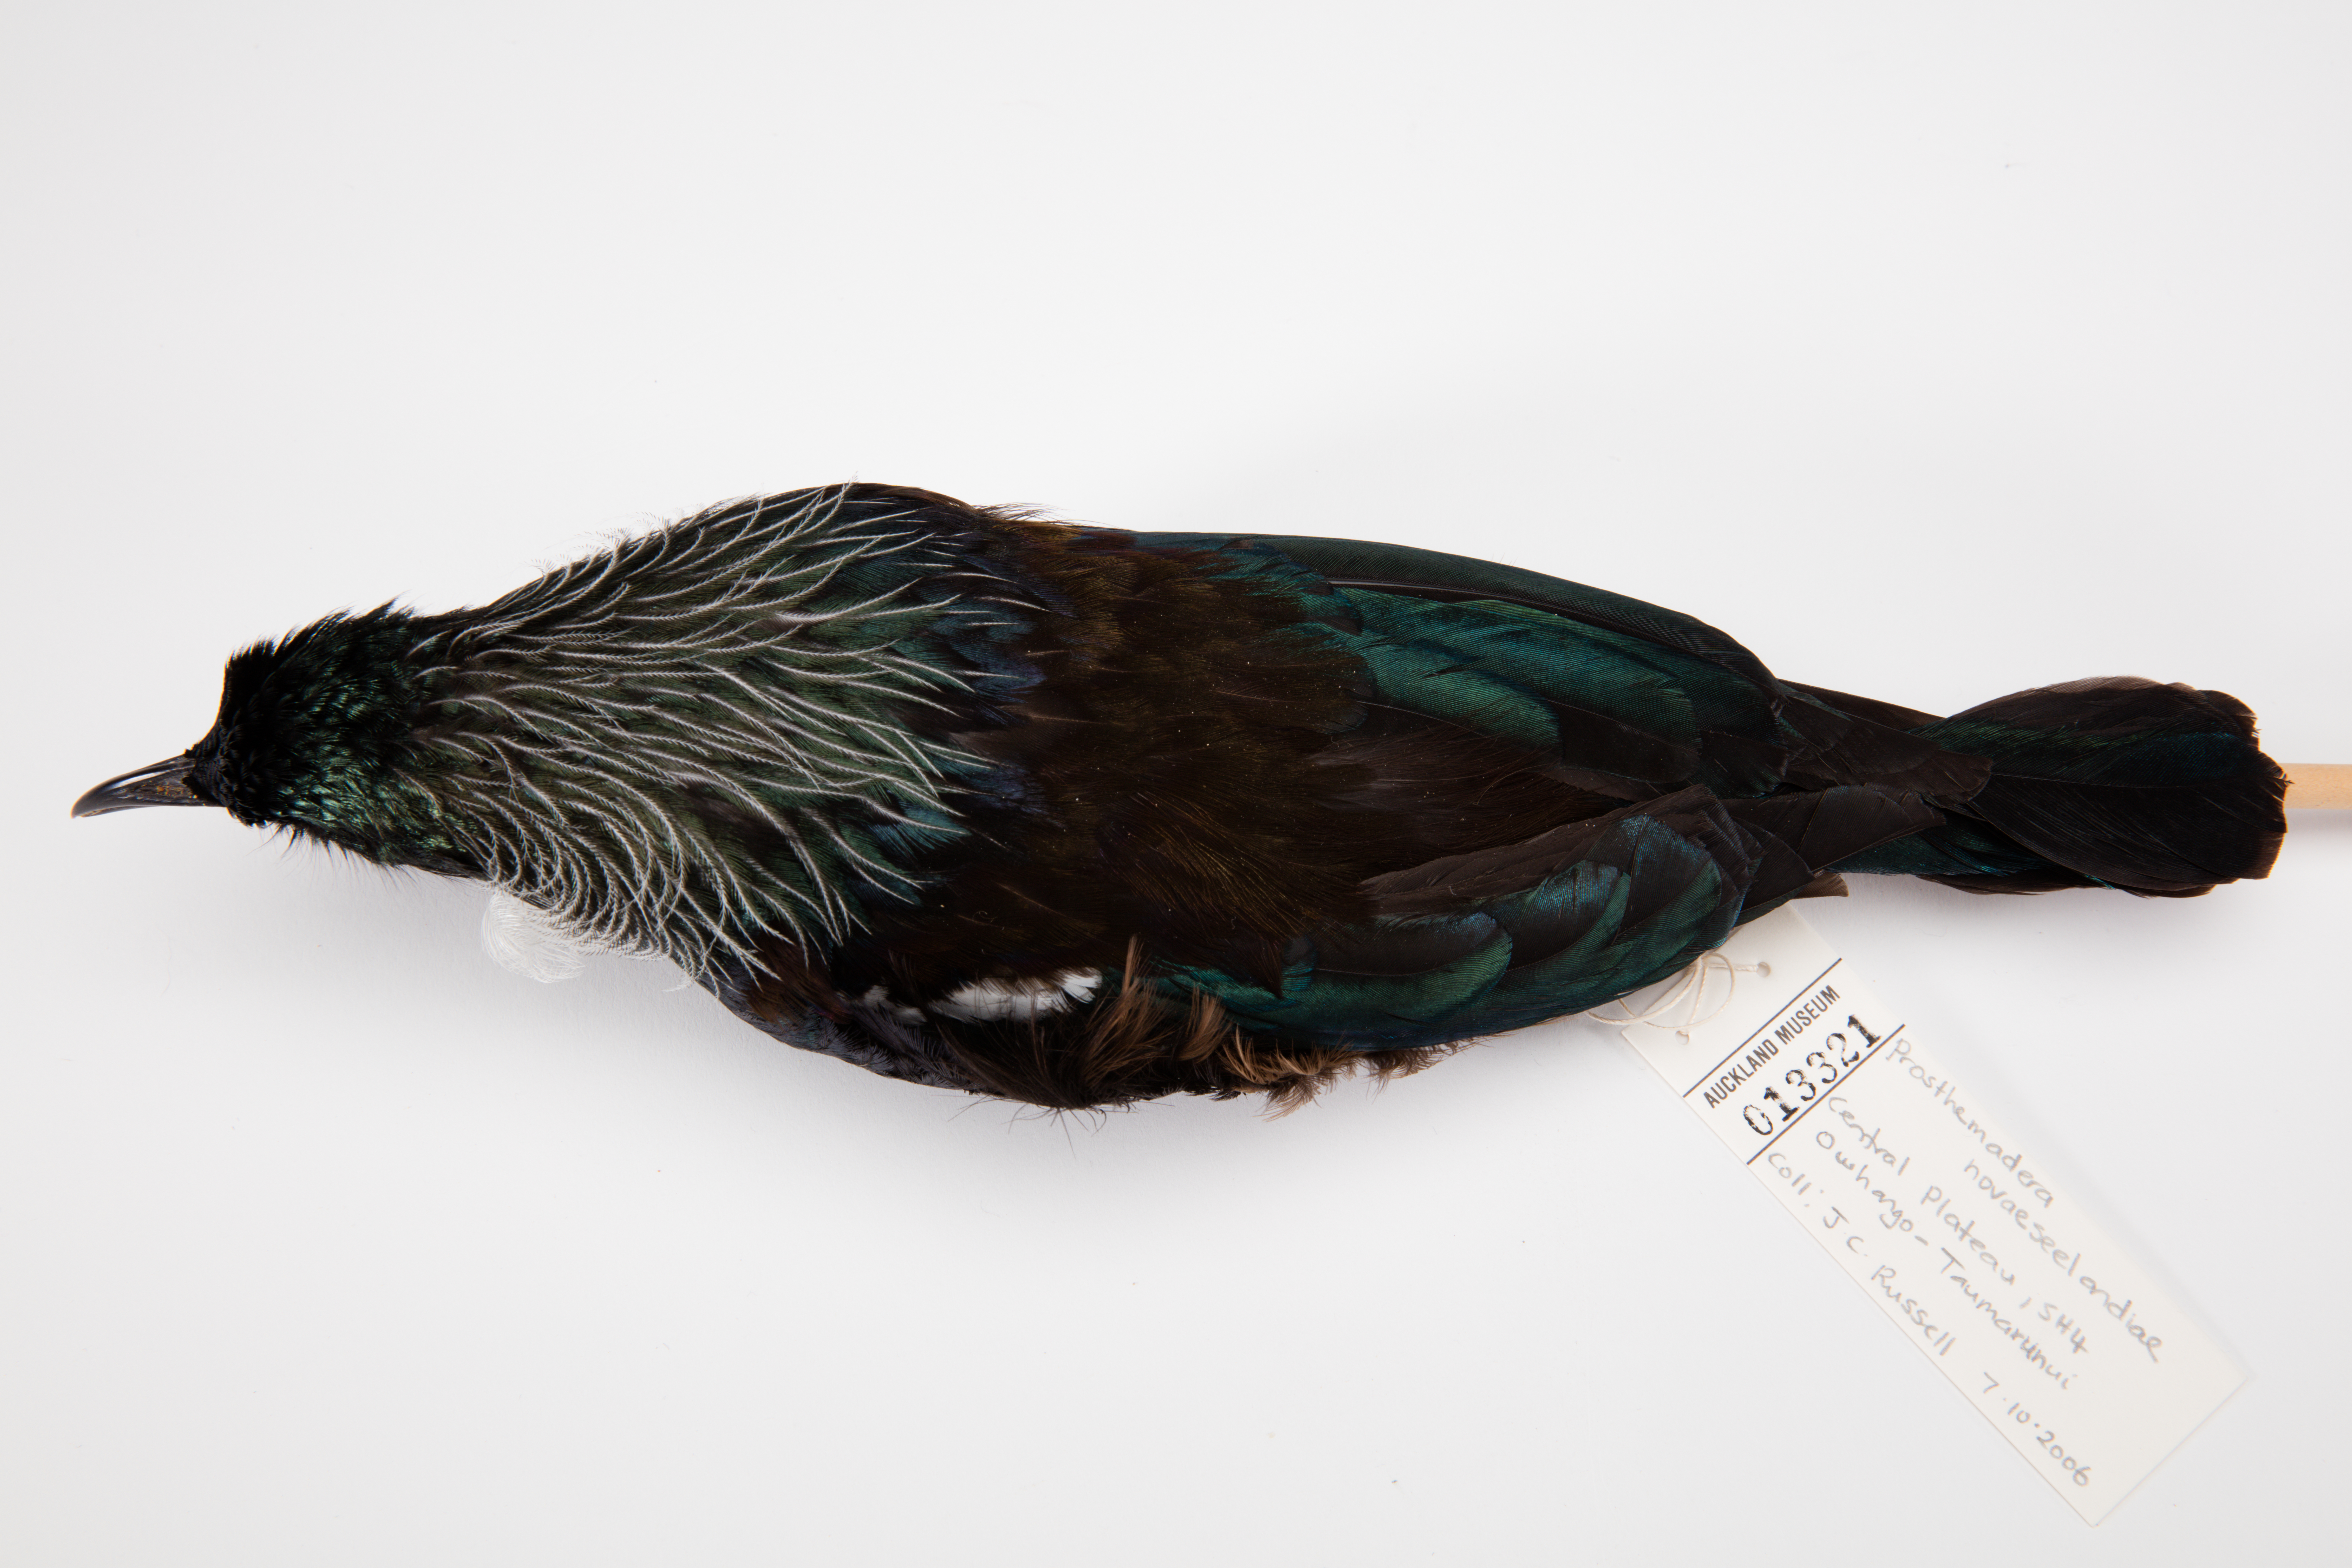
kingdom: Animalia
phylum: Chordata
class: Aves
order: Passeriformes
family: Meliphagidae
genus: Prosthemadera
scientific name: Prosthemadera novaeseelandiae
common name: Tui
